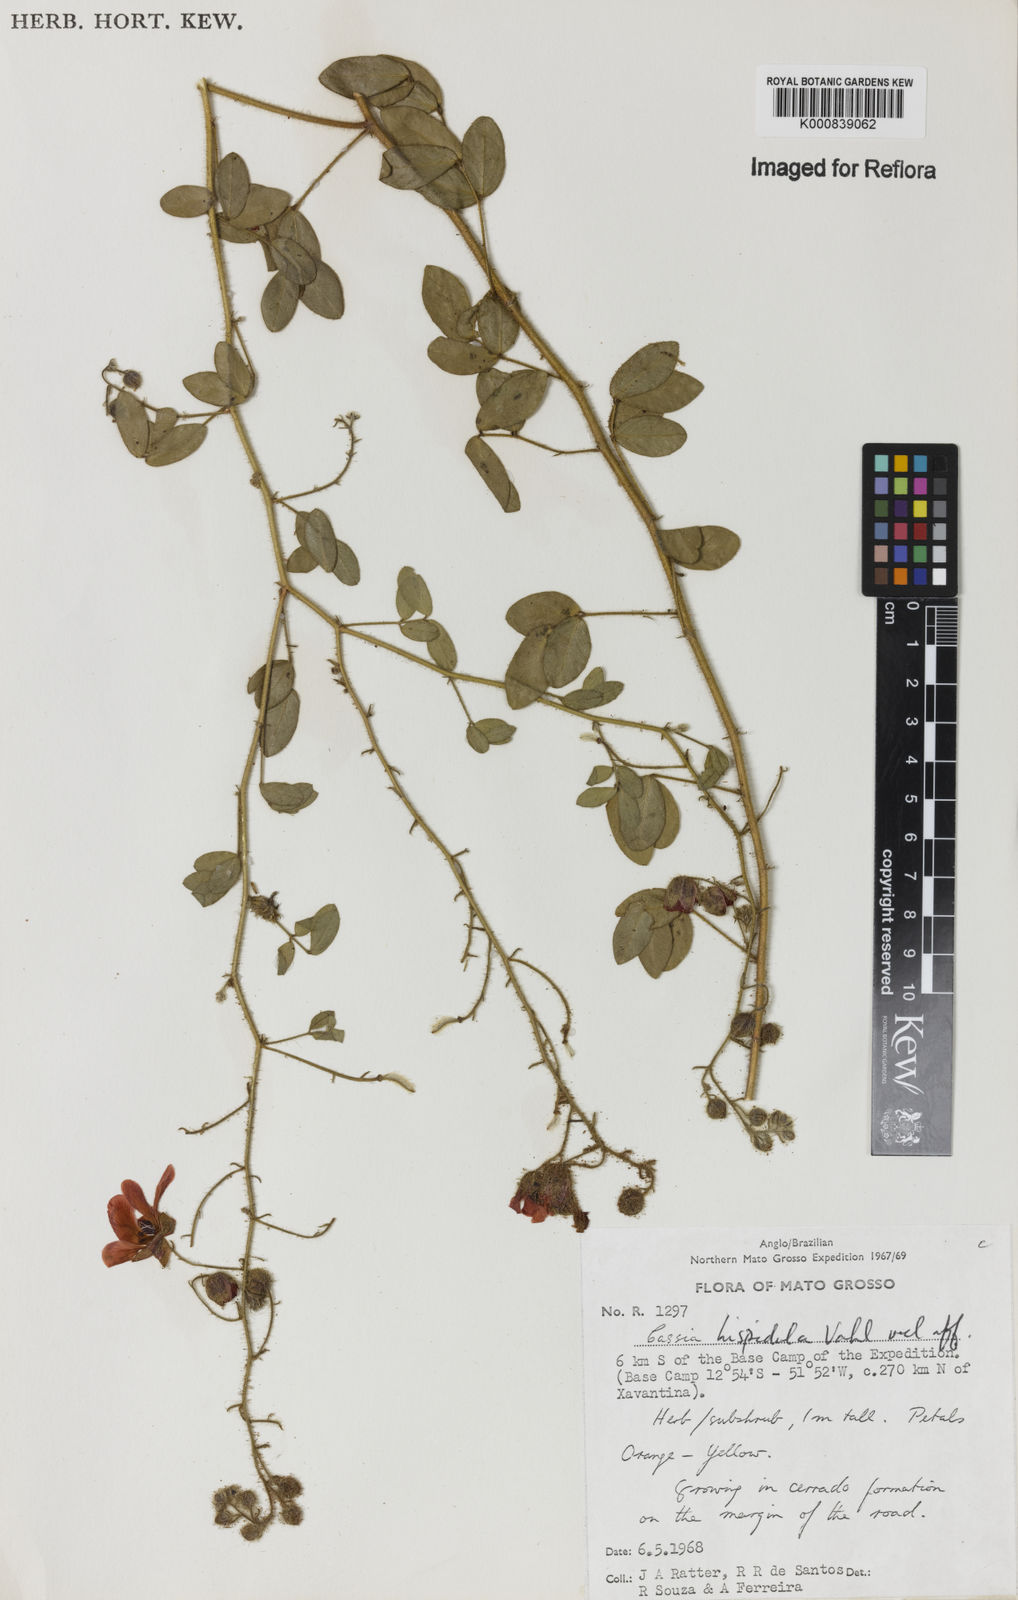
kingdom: Plantae
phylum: Tracheophyta
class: Magnoliopsida
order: Fabales
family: Fabaceae
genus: Chamaecrista
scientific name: Chamaecrista hispidula
